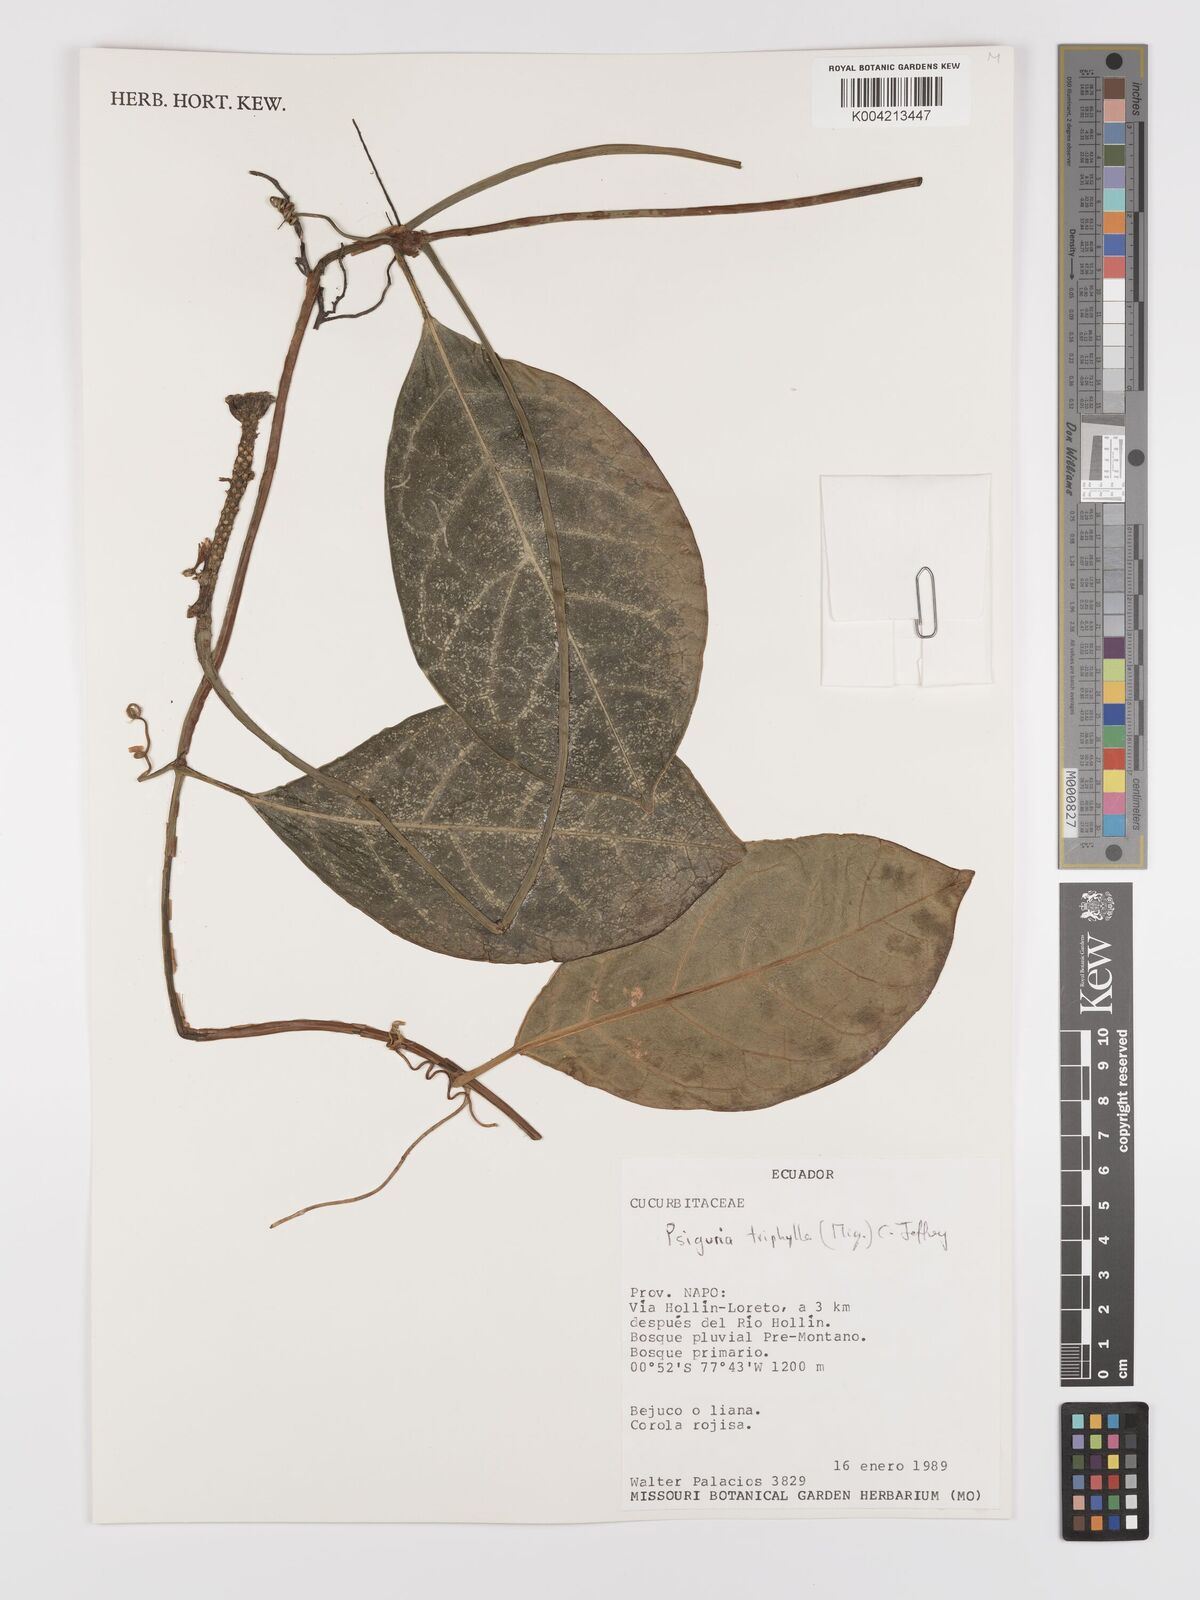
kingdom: Plantae
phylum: Tracheophyta
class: Magnoliopsida
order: Cucurbitales
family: Cucurbitaceae
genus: Psiguria
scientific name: Psiguria triphylla
